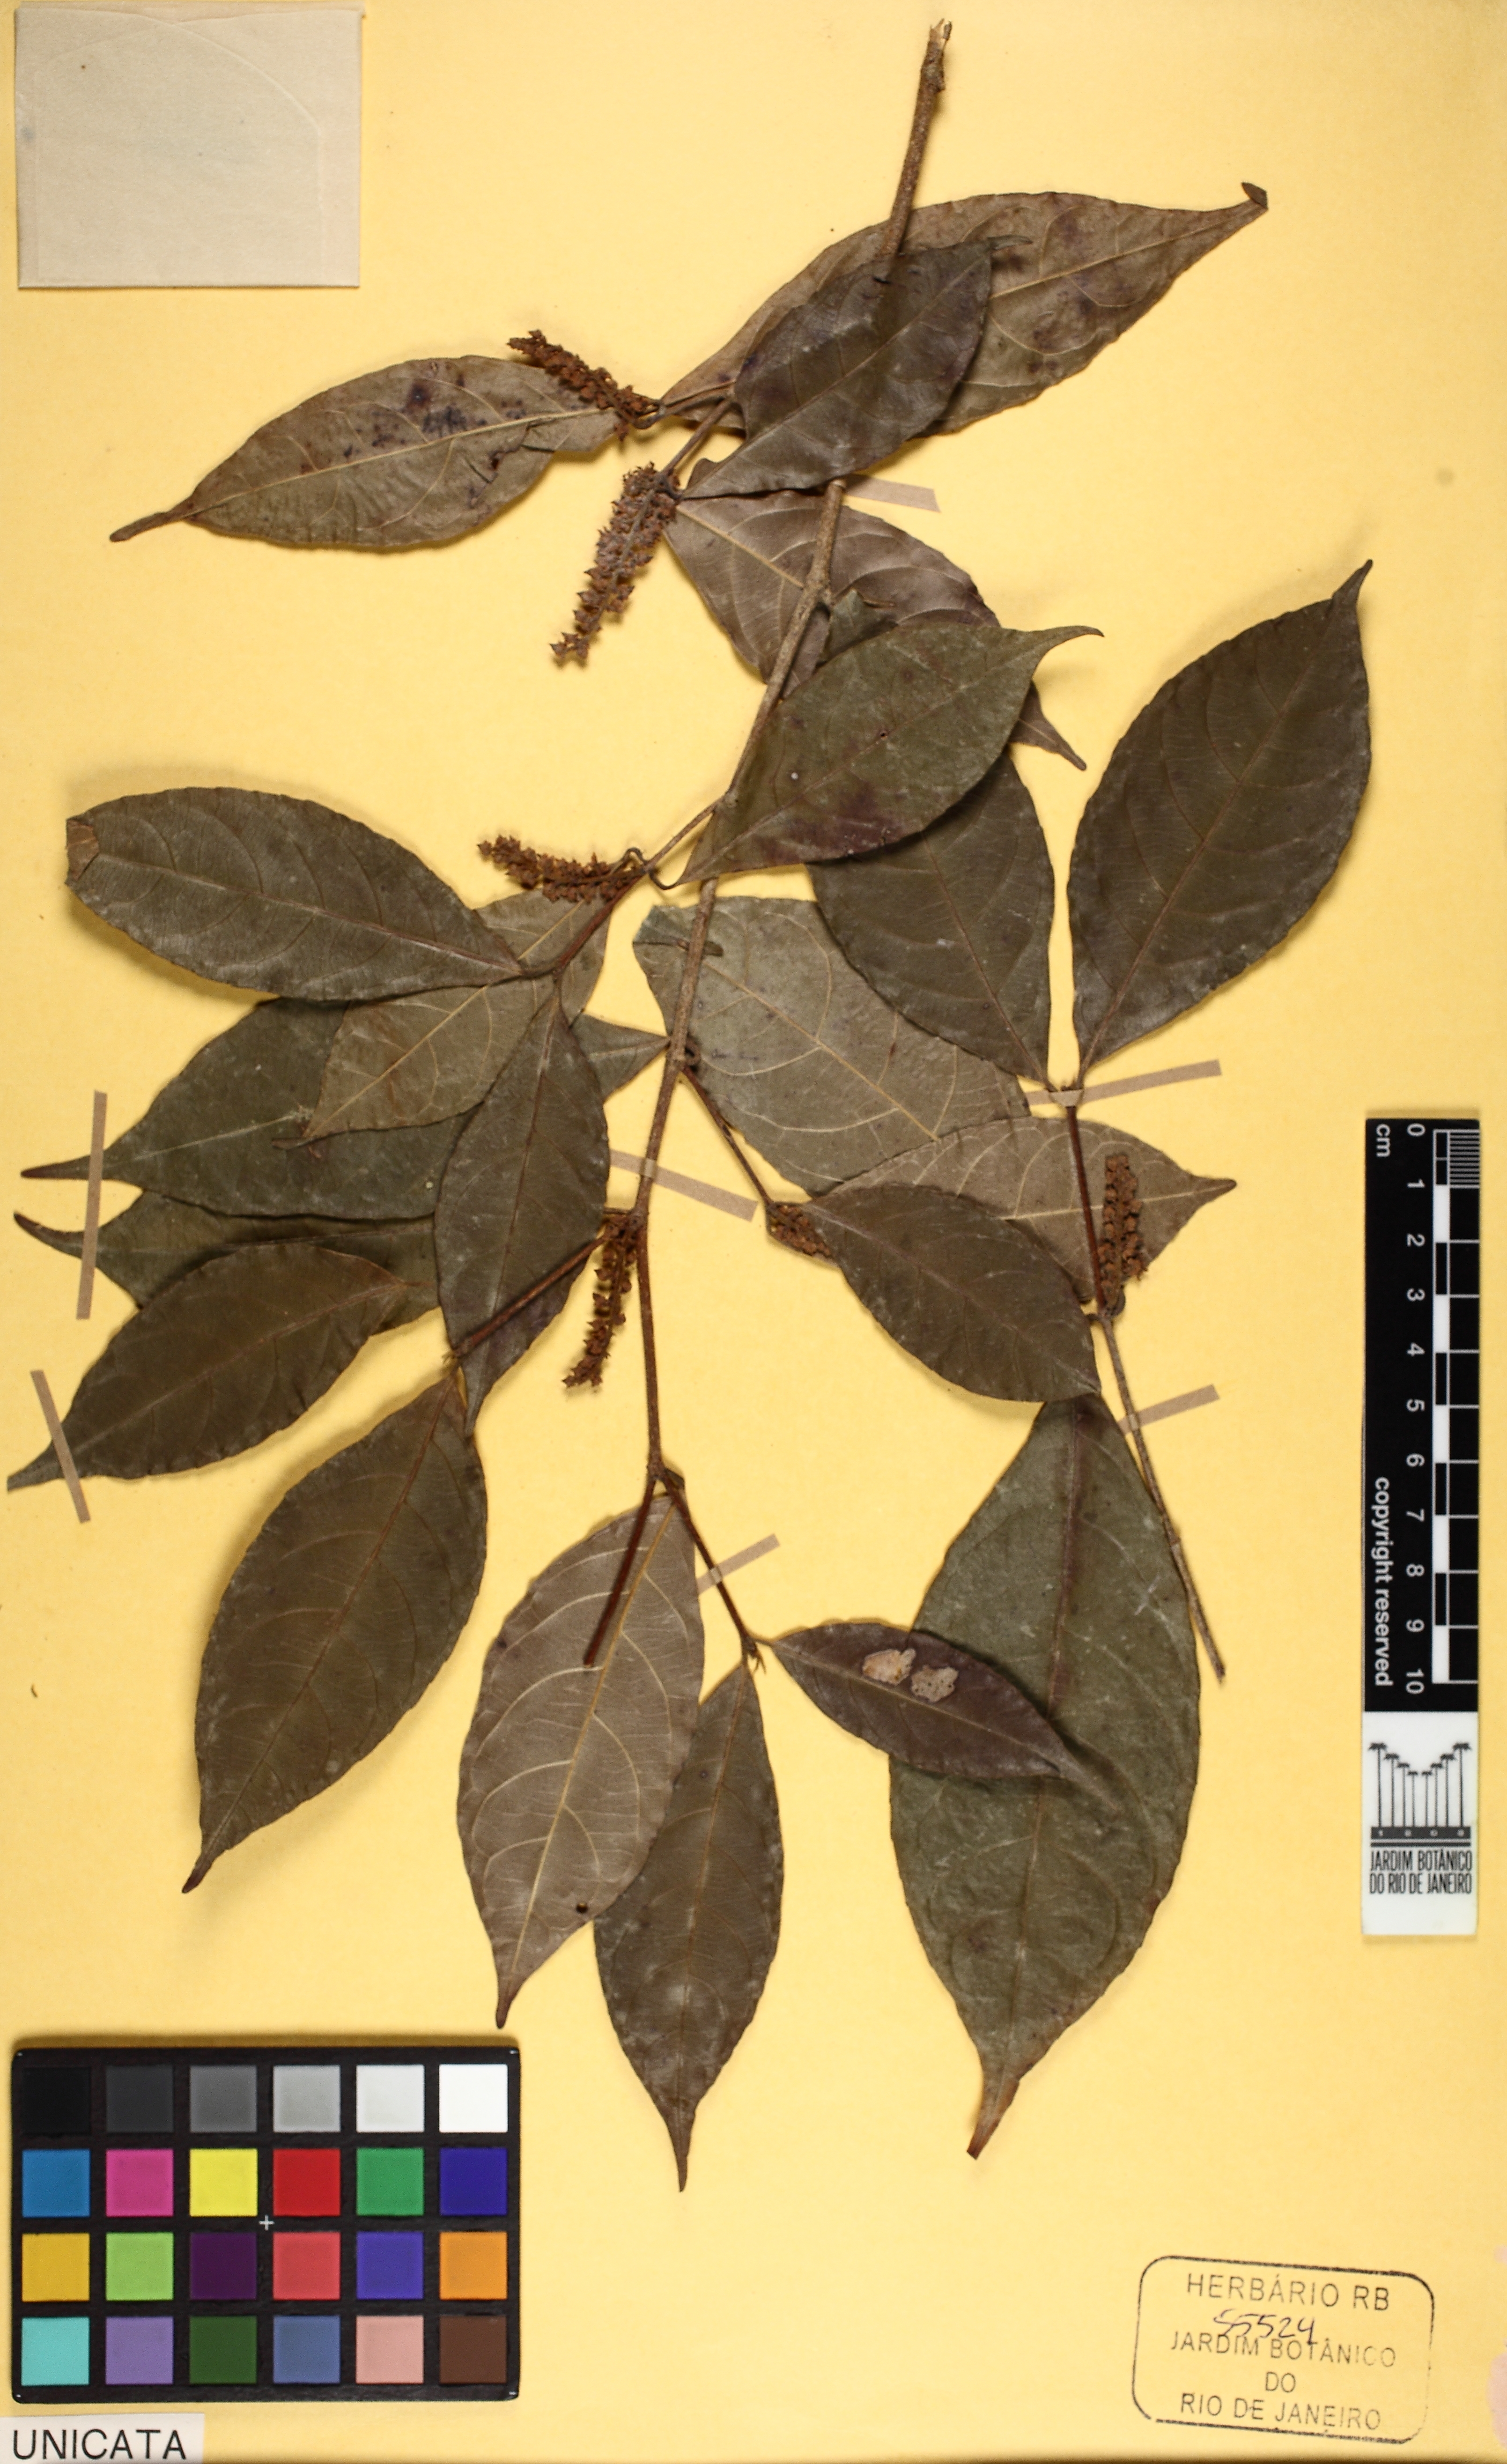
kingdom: Plantae
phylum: Tracheophyta
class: Magnoliopsida
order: Malpighiales
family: Violaceae
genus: Rinorea
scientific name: Rinorea pubiflora
